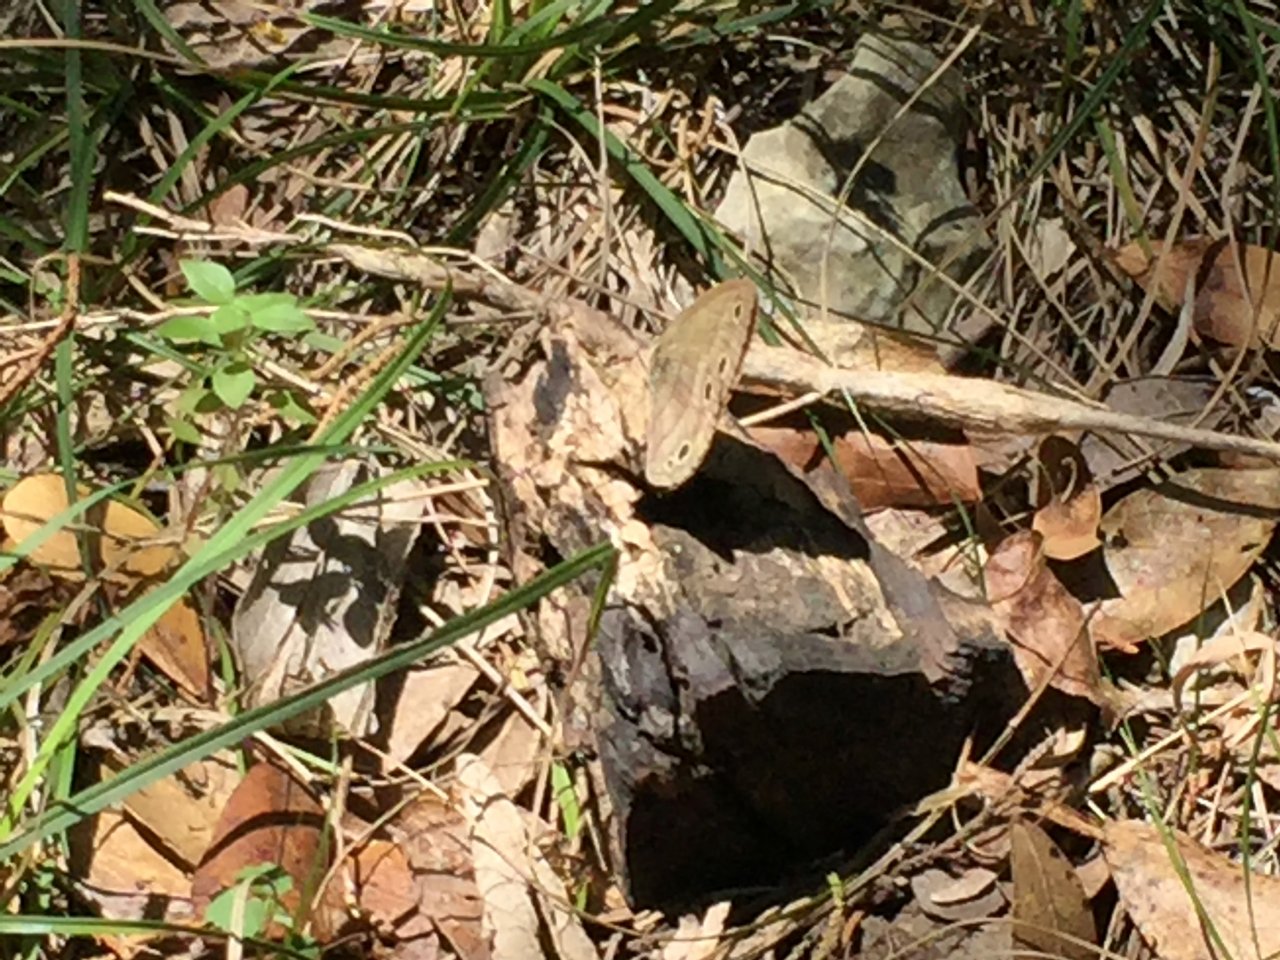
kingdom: Animalia
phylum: Arthropoda
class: Insecta
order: Lepidoptera
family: Nymphalidae
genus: Euptychia
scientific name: Euptychia cymela
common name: Little Wood Satyr
